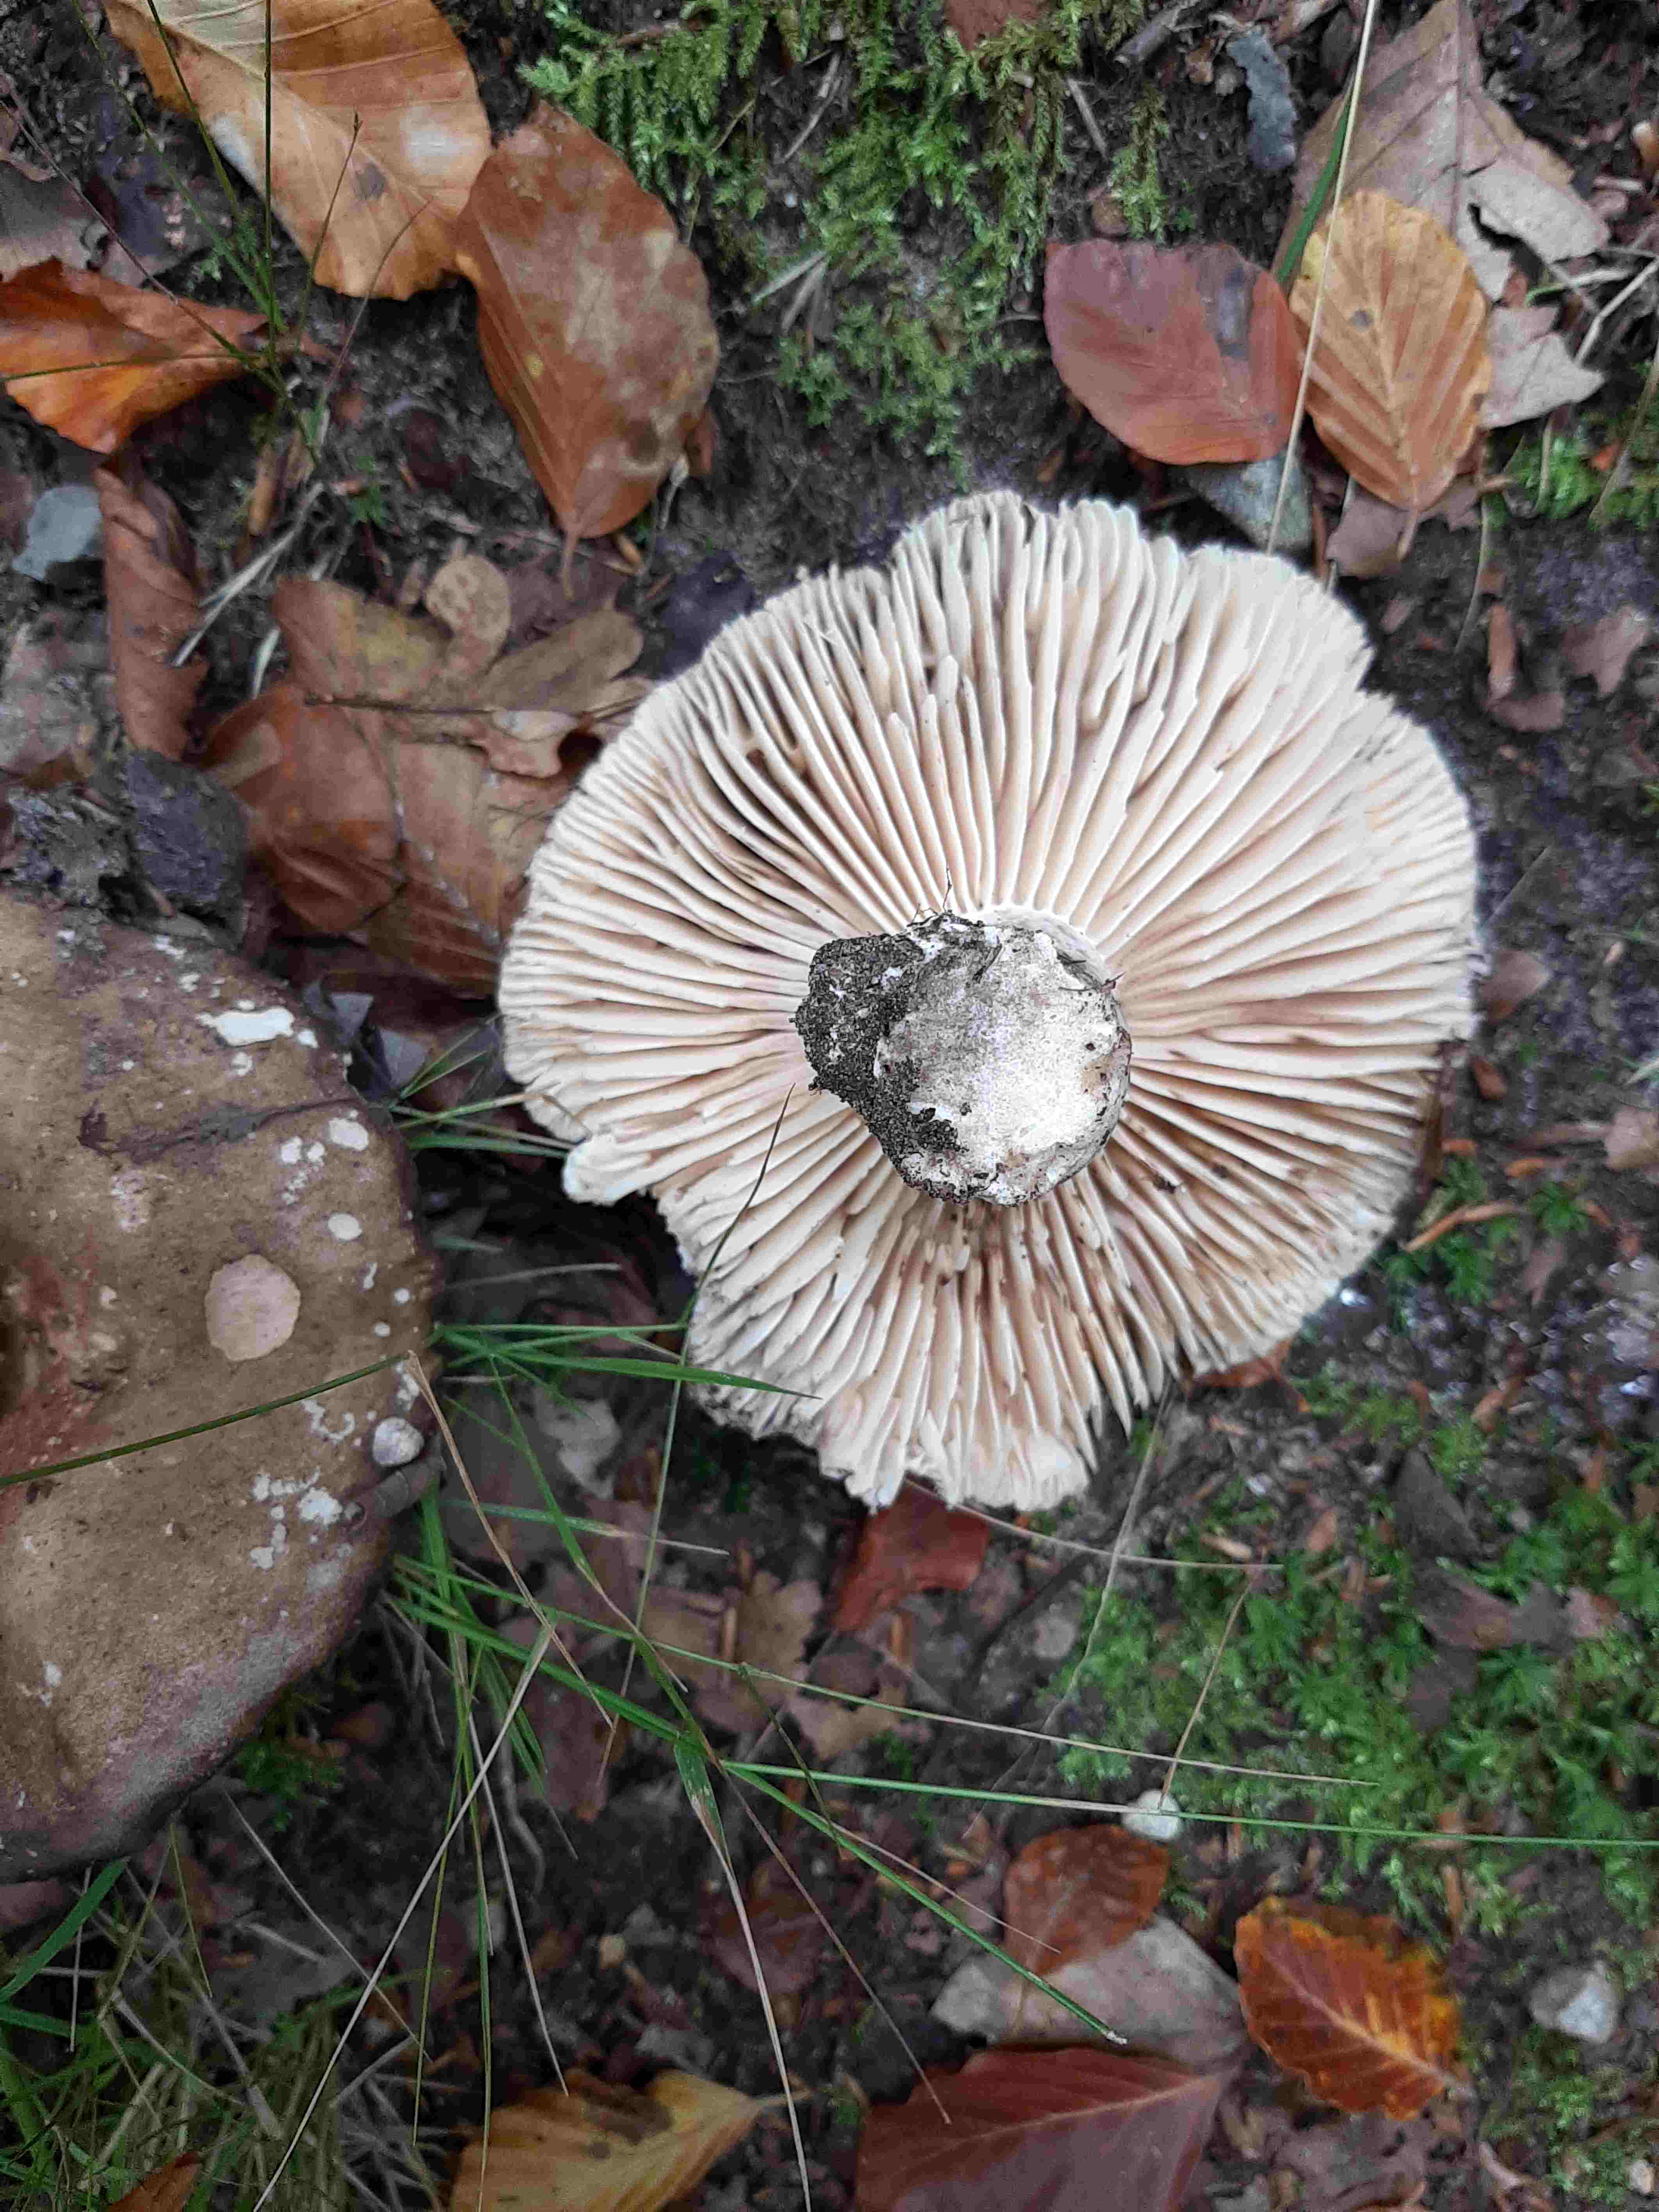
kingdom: Fungi
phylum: Basidiomycota
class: Agaricomycetes
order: Russulales
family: Russulaceae
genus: Russula
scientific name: Russula adusta
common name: sværtende skørhat
